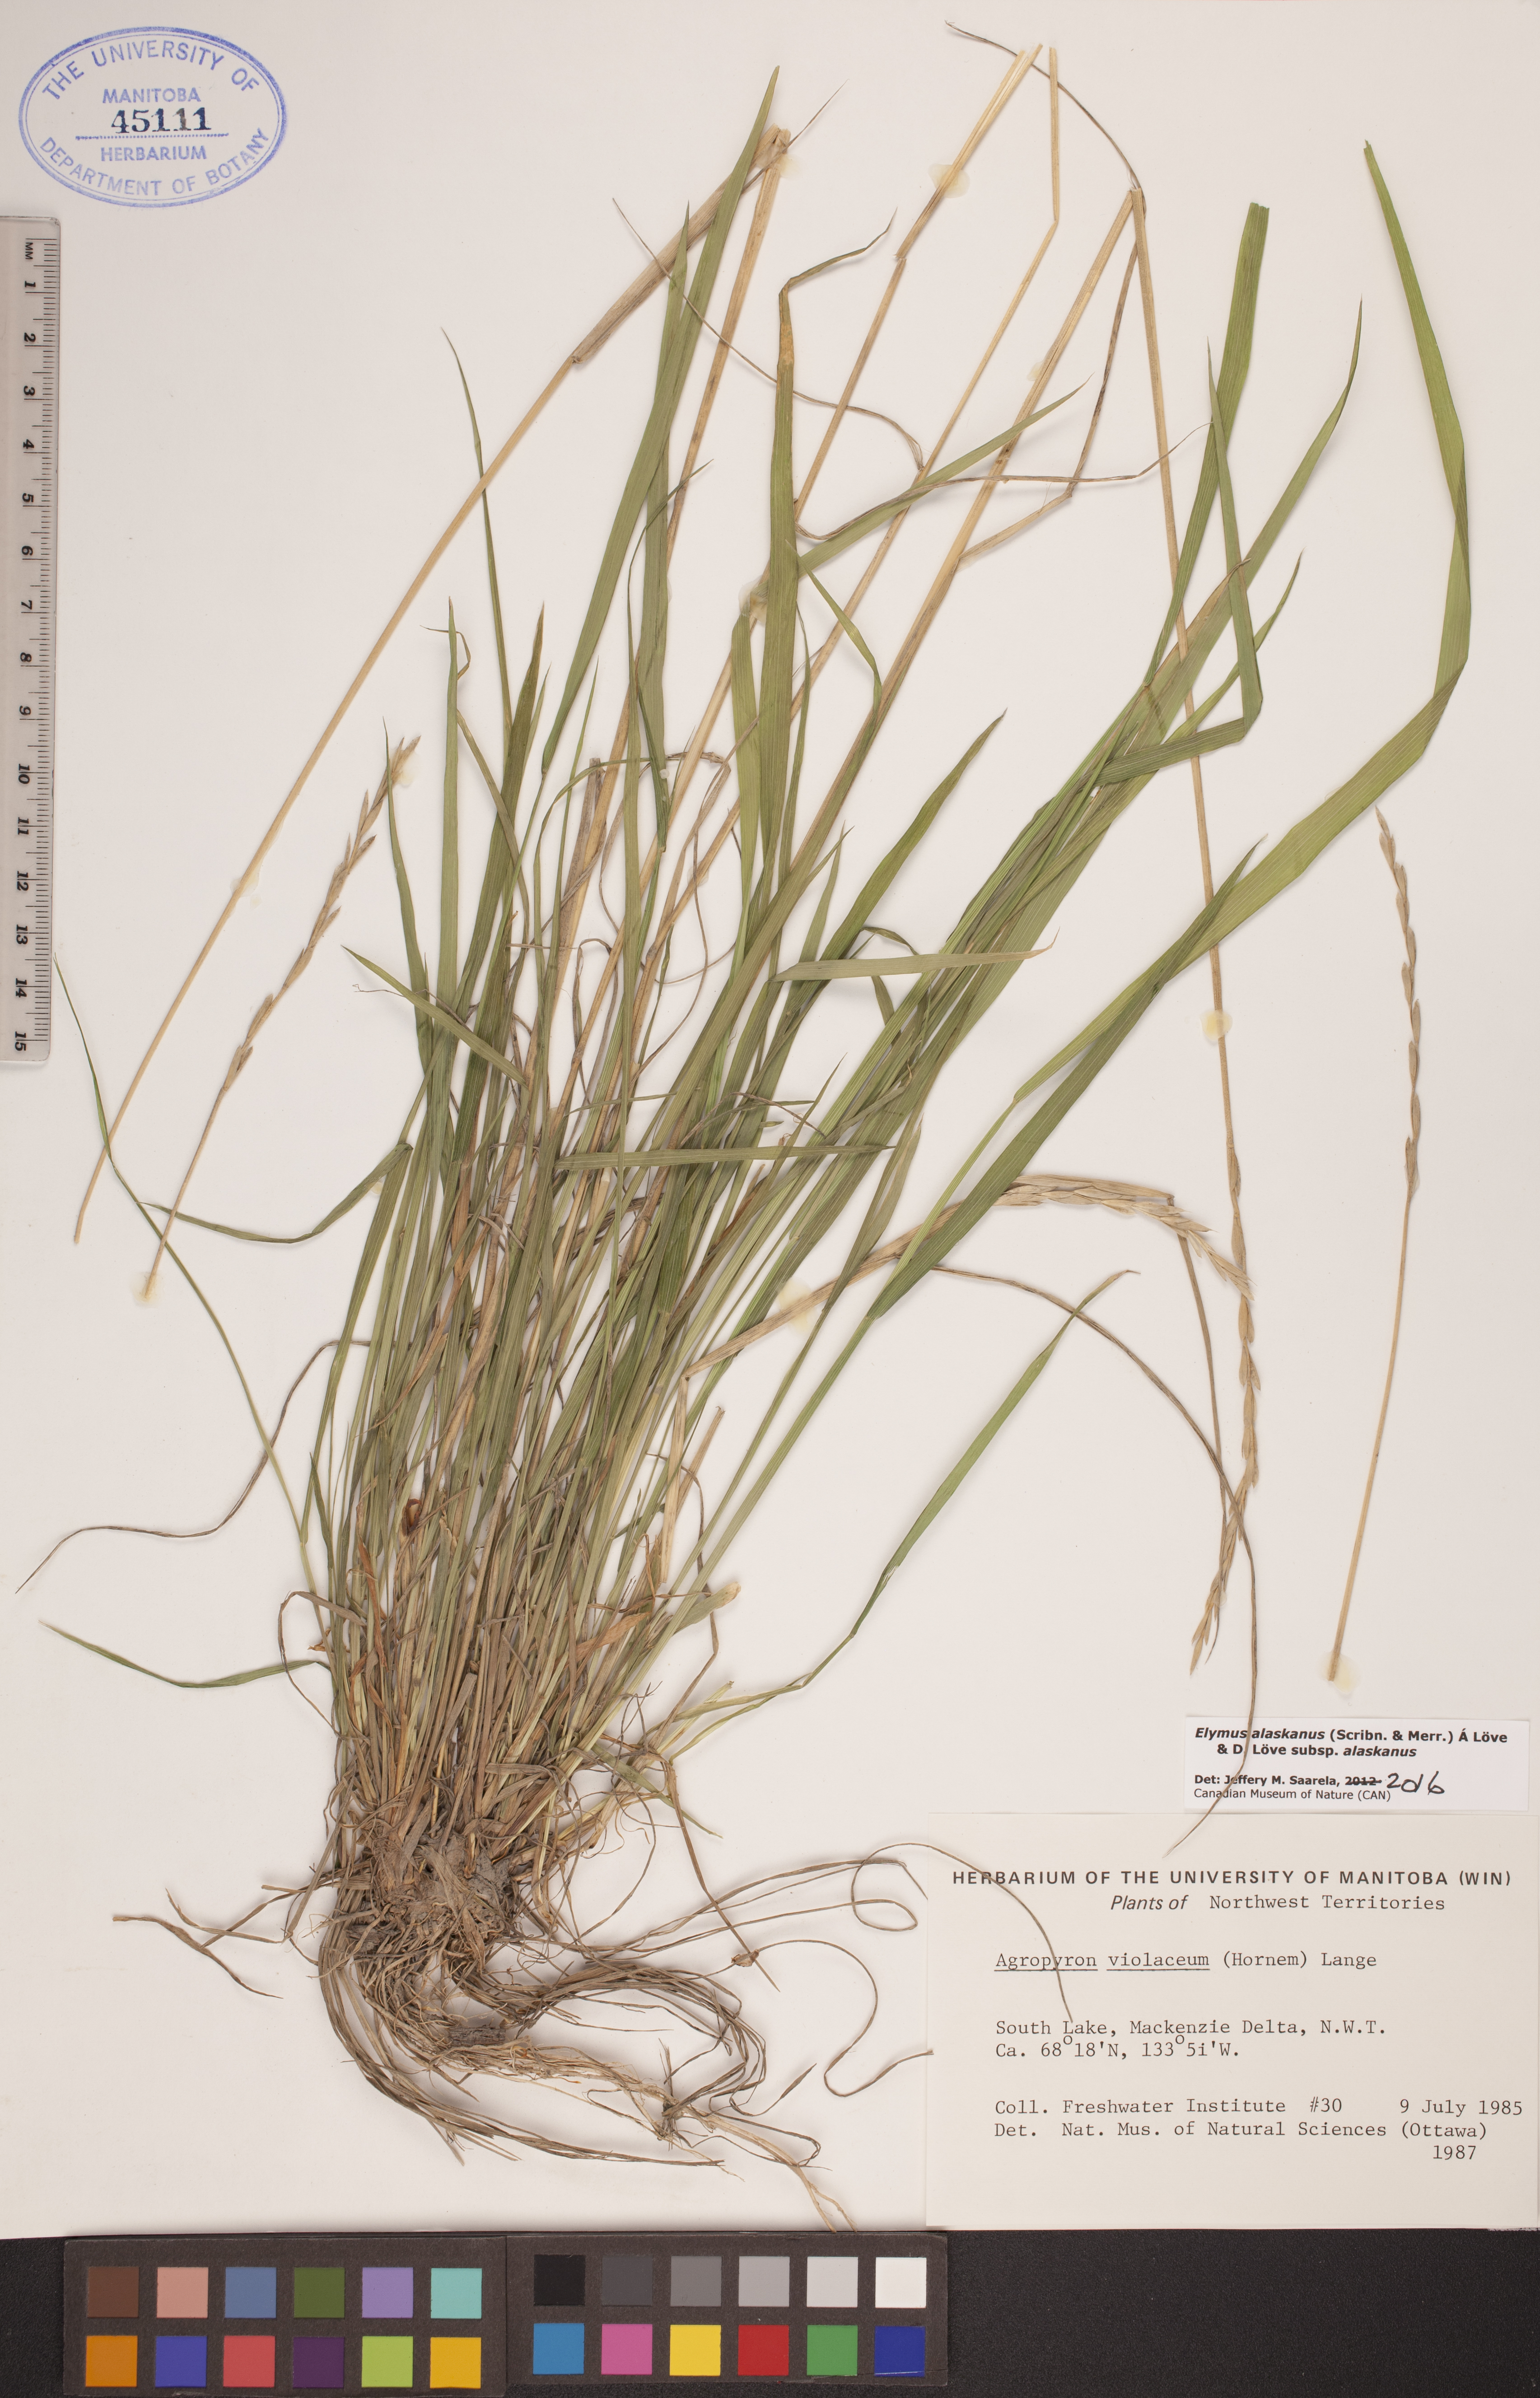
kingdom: Plantae
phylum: Tracheophyta
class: Liliopsida
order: Poales
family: Poaceae
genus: Elymus
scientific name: Elymus alaskanus
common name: Alaska wheatgrass
